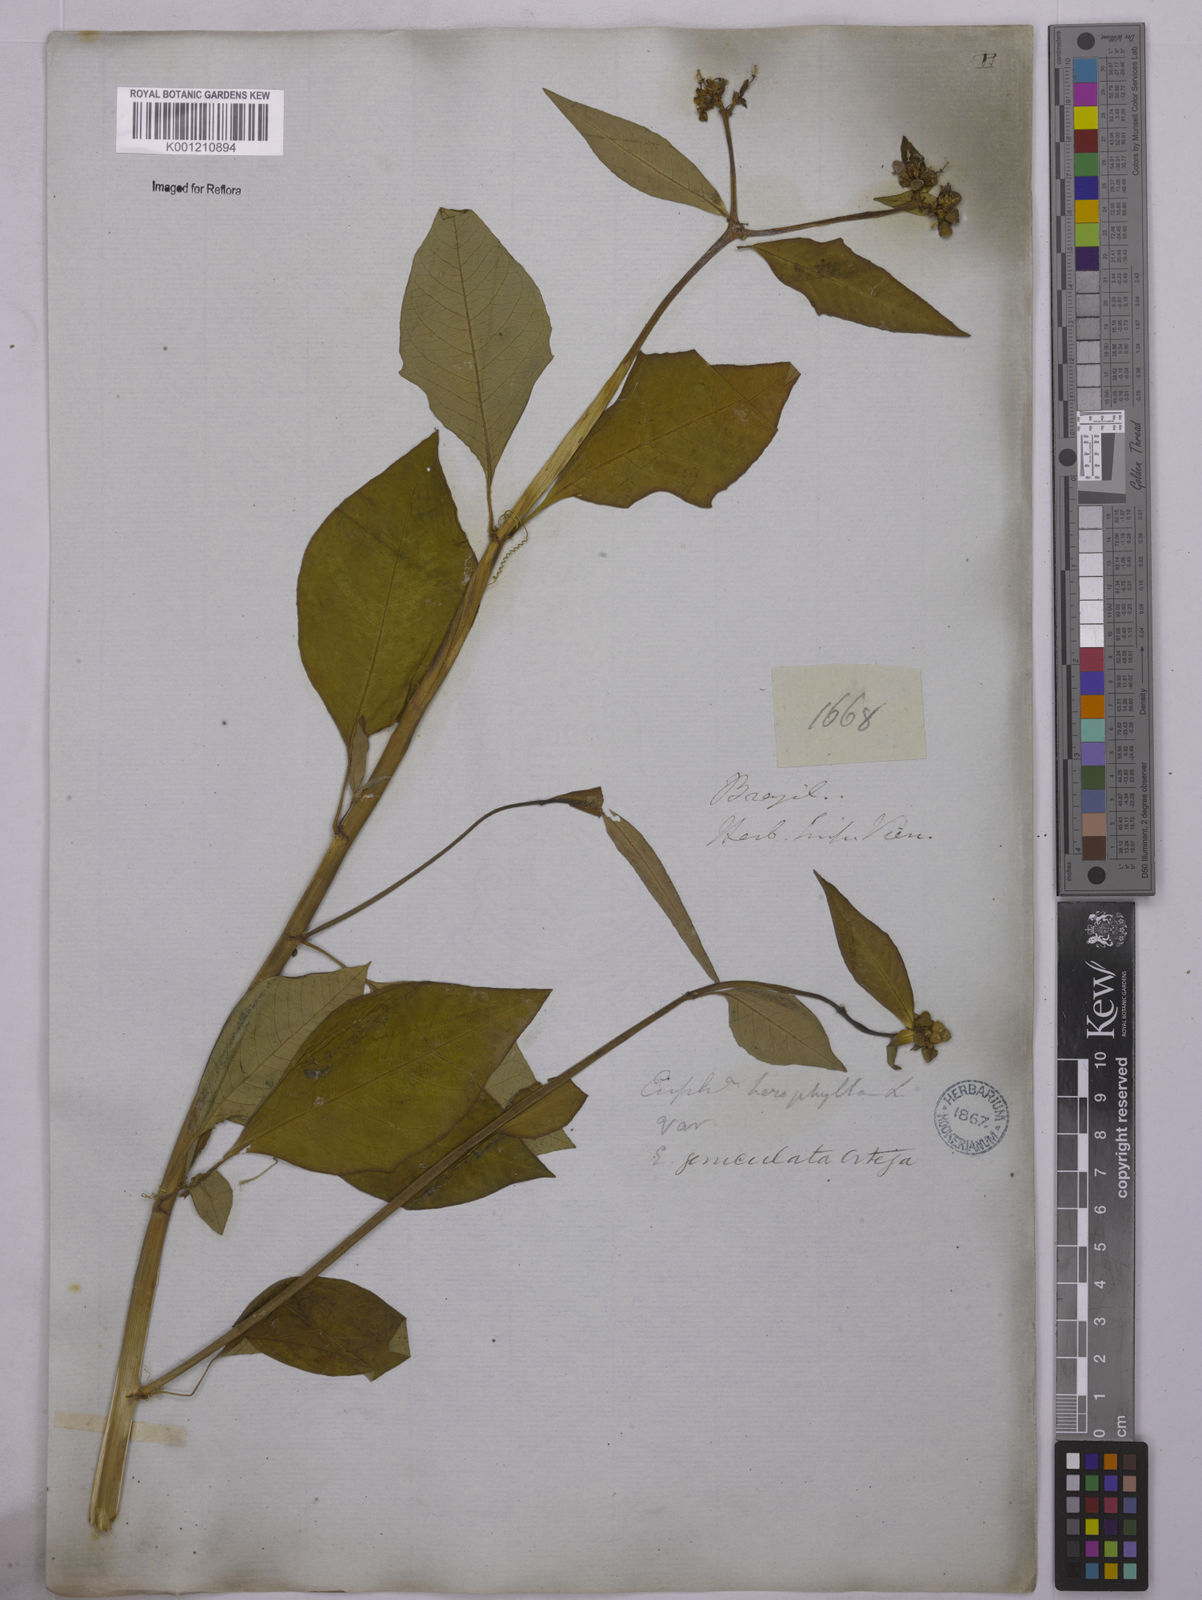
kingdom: Plantae
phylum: Tracheophyta
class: Magnoliopsida
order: Malpighiales
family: Euphorbiaceae
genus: Euphorbia
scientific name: Euphorbia heterophylla
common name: Mexican fireplant
